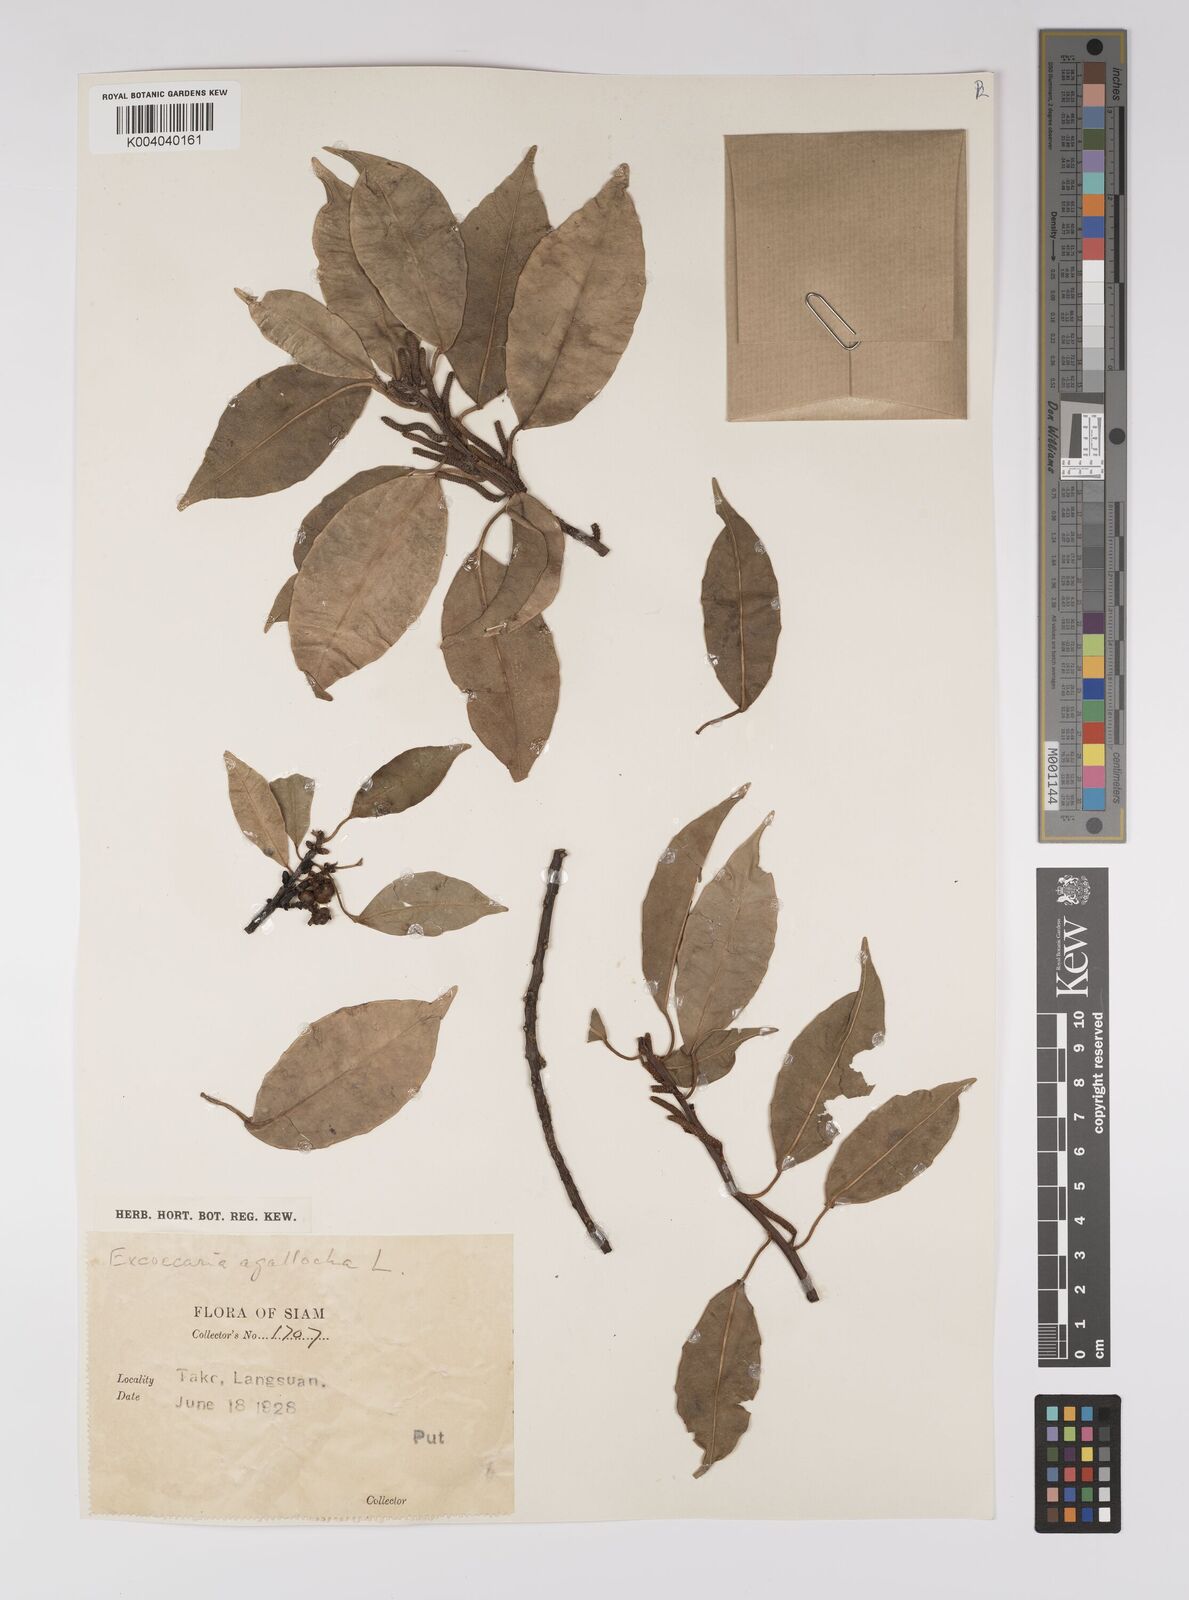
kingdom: Plantae
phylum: Tracheophyta
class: Magnoliopsida
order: Malpighiales
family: Euphorbiaceae
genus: Excoecaria
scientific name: Excoecaria agallocha
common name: River poisontree
